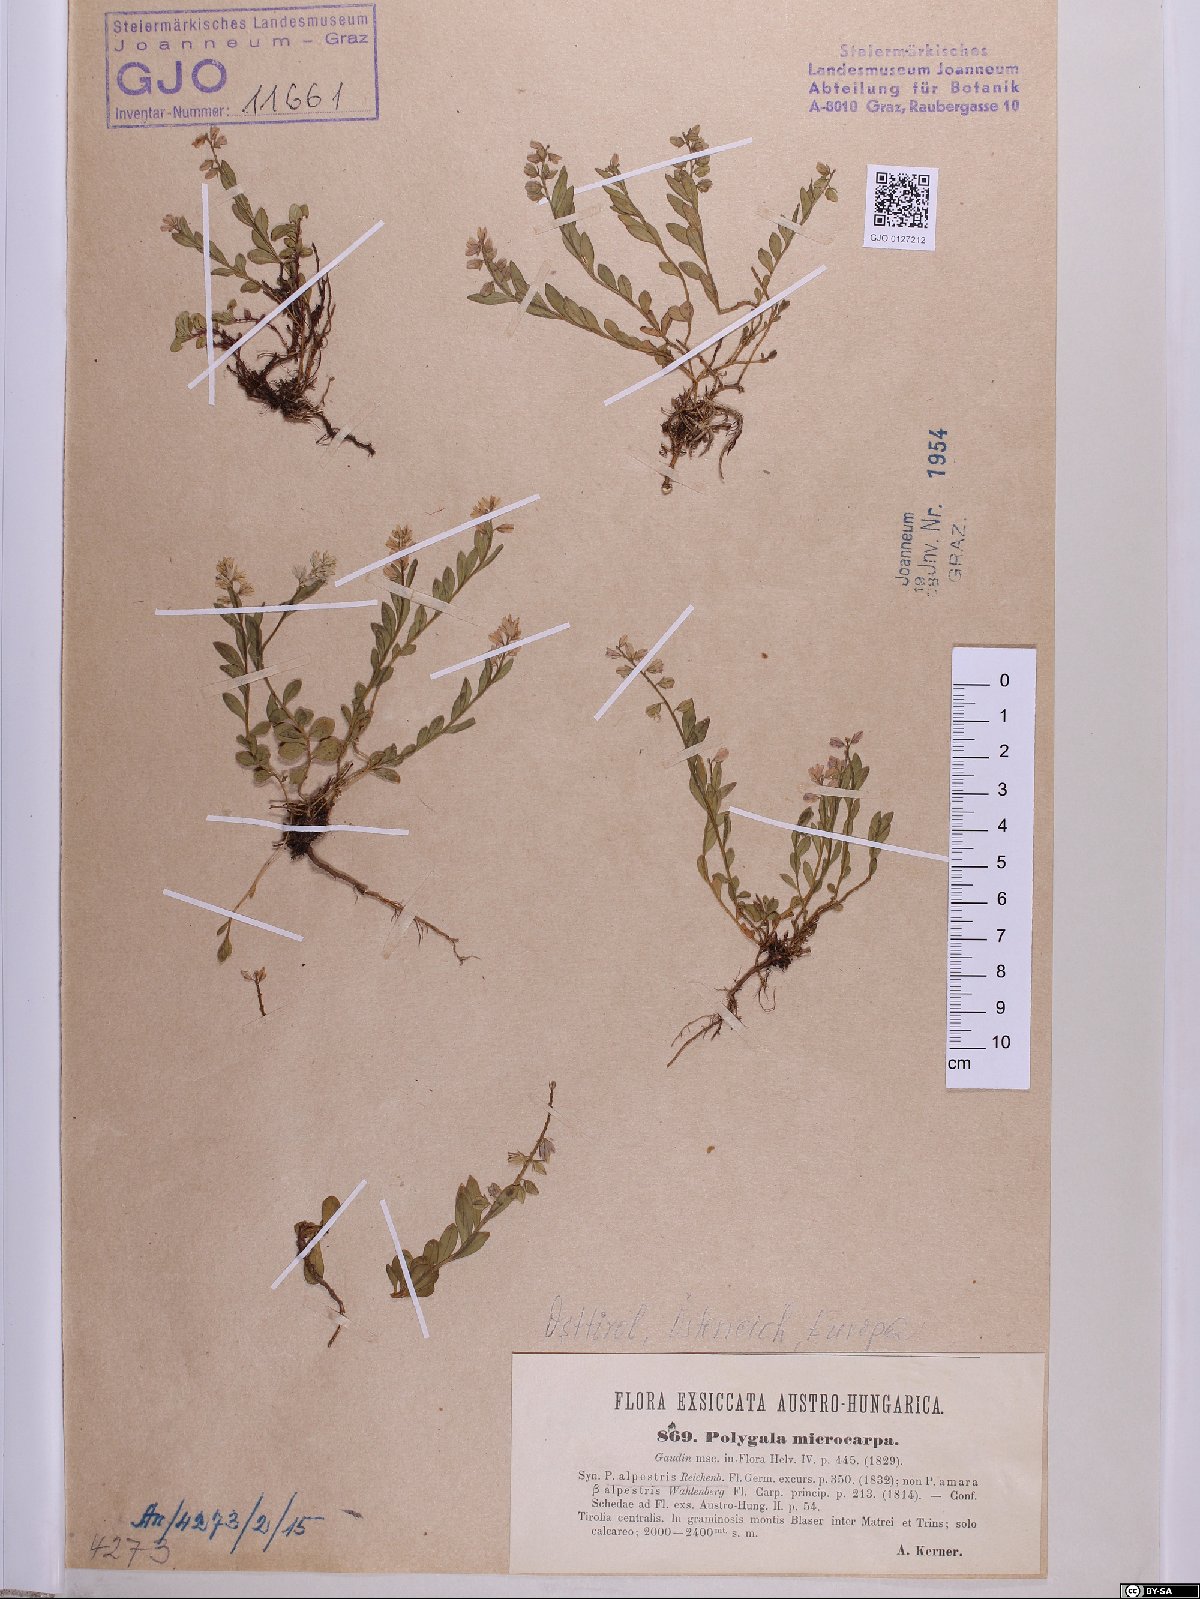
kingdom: Plantae
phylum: Tracheophyta
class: Magnoliopsida
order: Fabales
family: Polygalaceae
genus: Polygala
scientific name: Polygala alpestris
